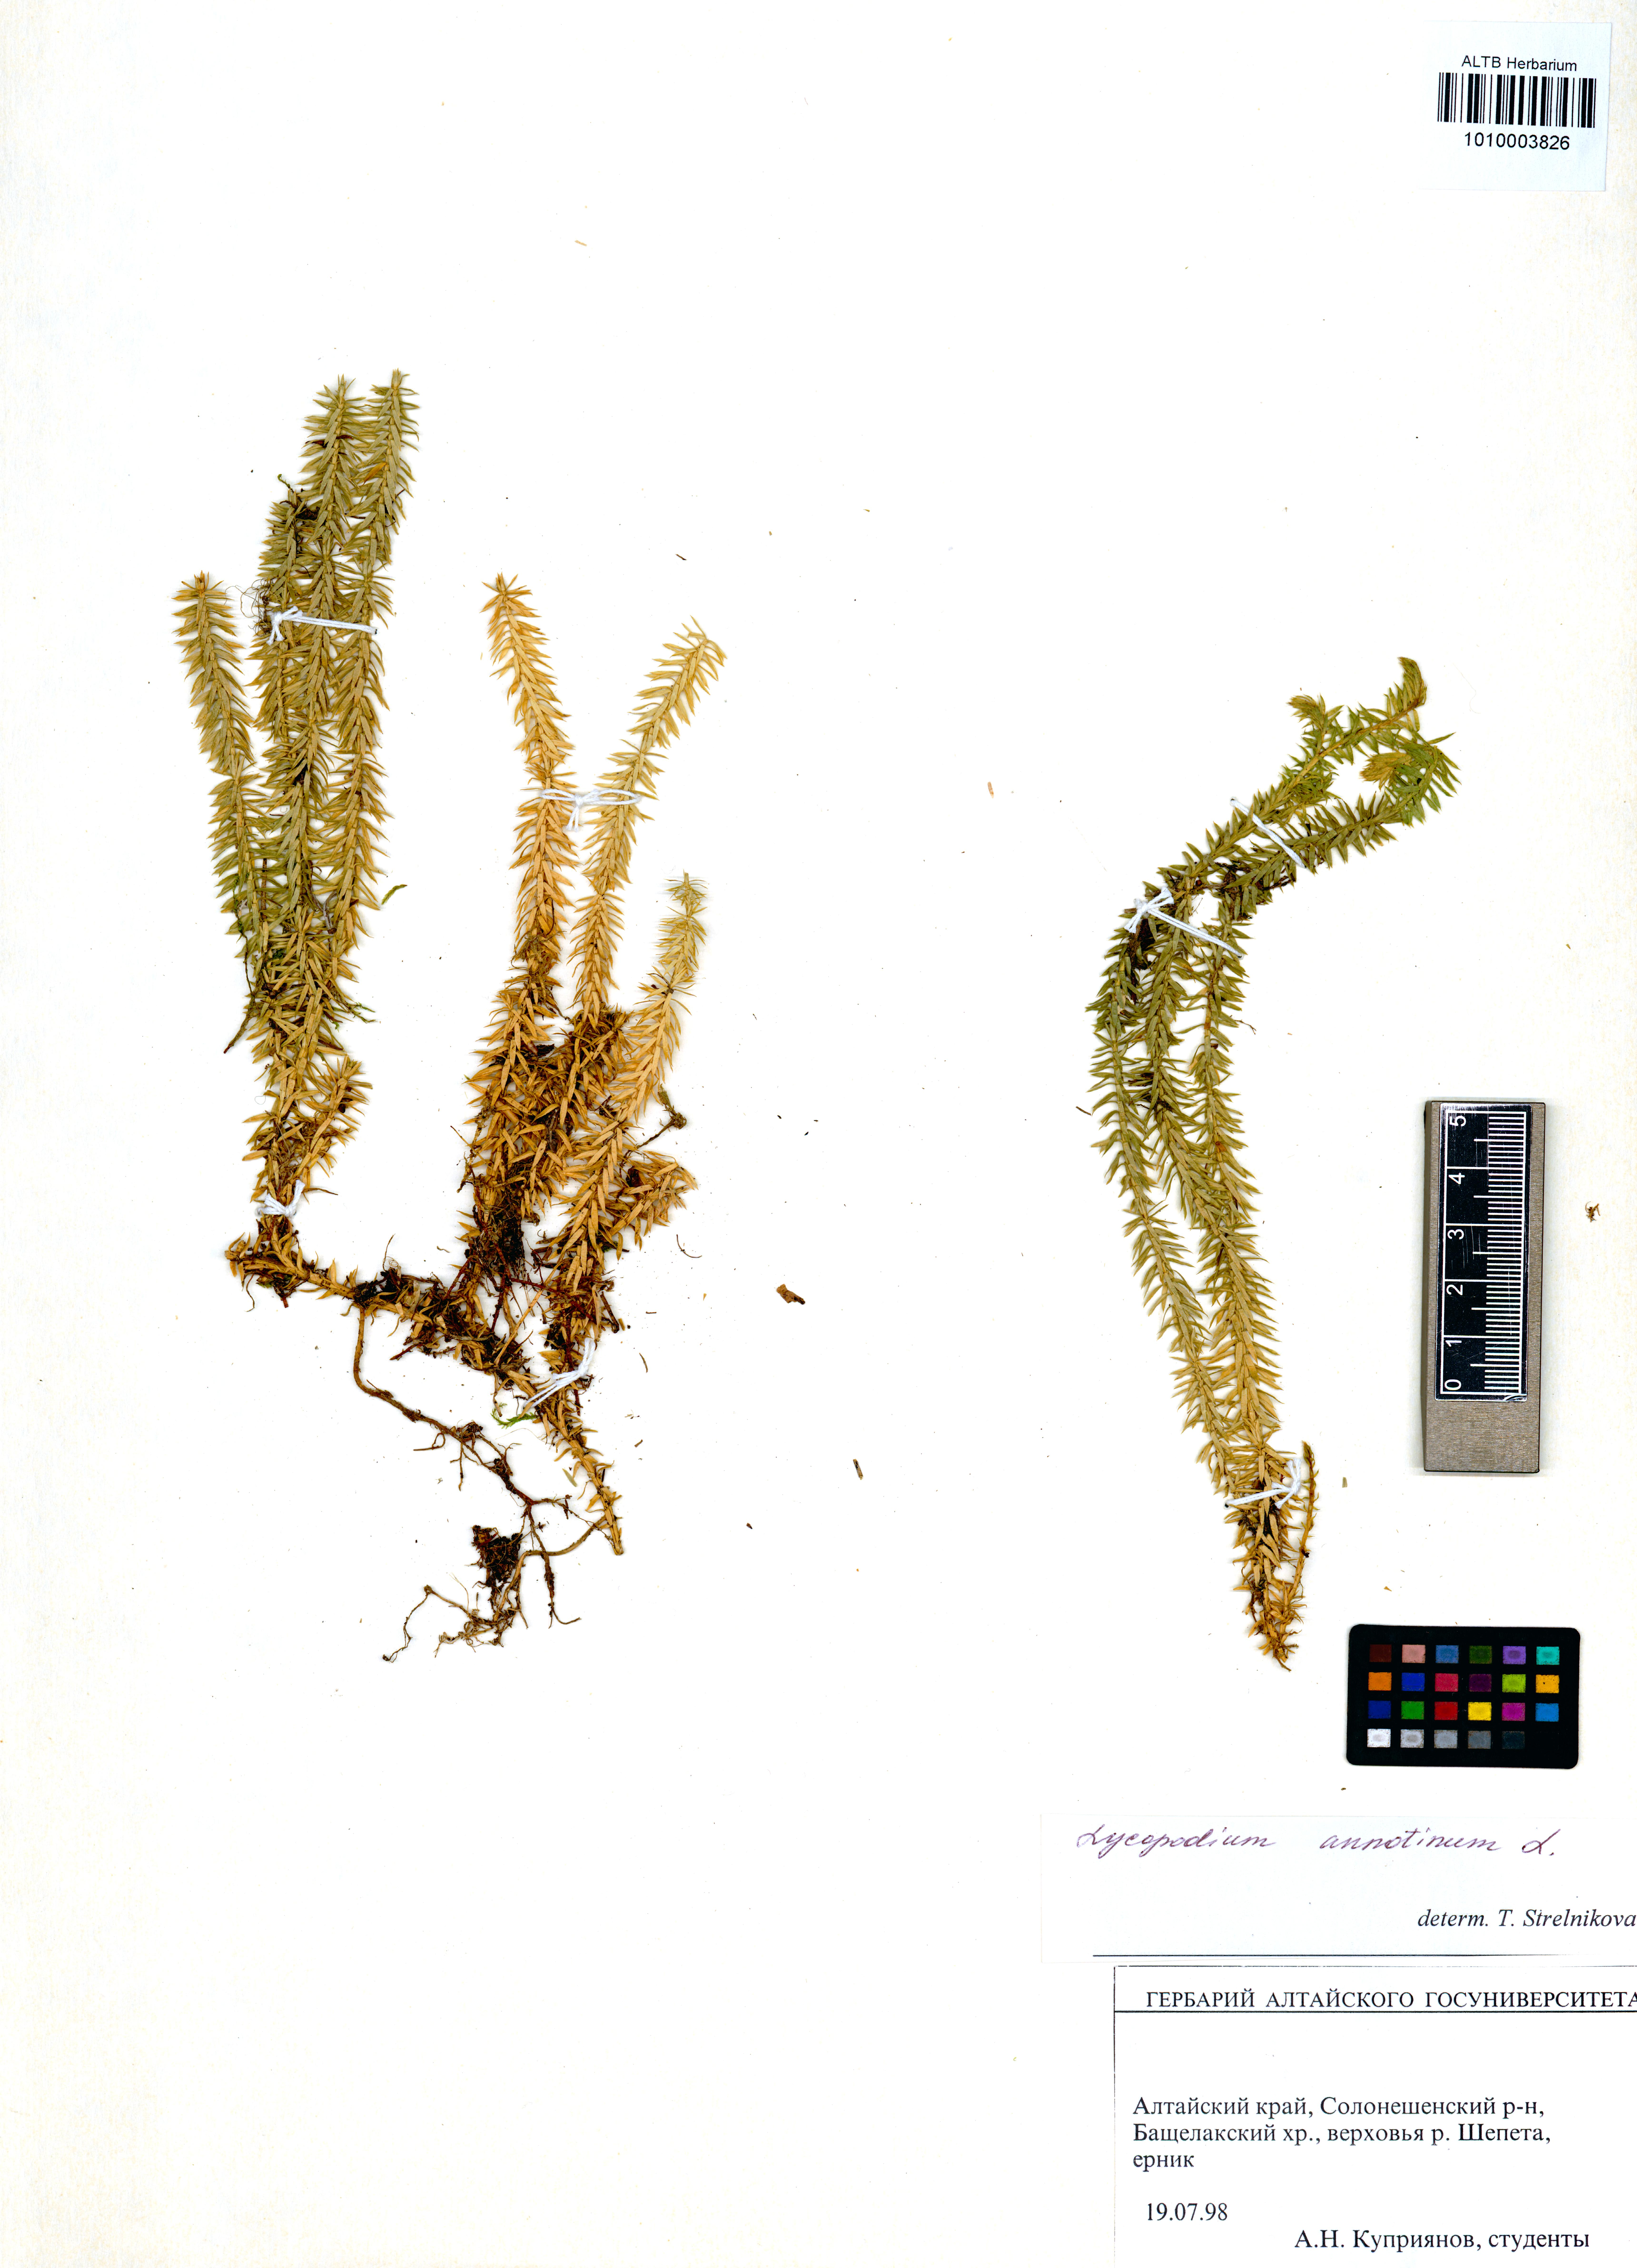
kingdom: Plantae
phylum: Tracheophyta
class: Lycopodiopsida
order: Lycopodiales
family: Lycopodiaceae
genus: Spinulum
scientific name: Spinulum annotinum
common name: Interrupted club-moss
